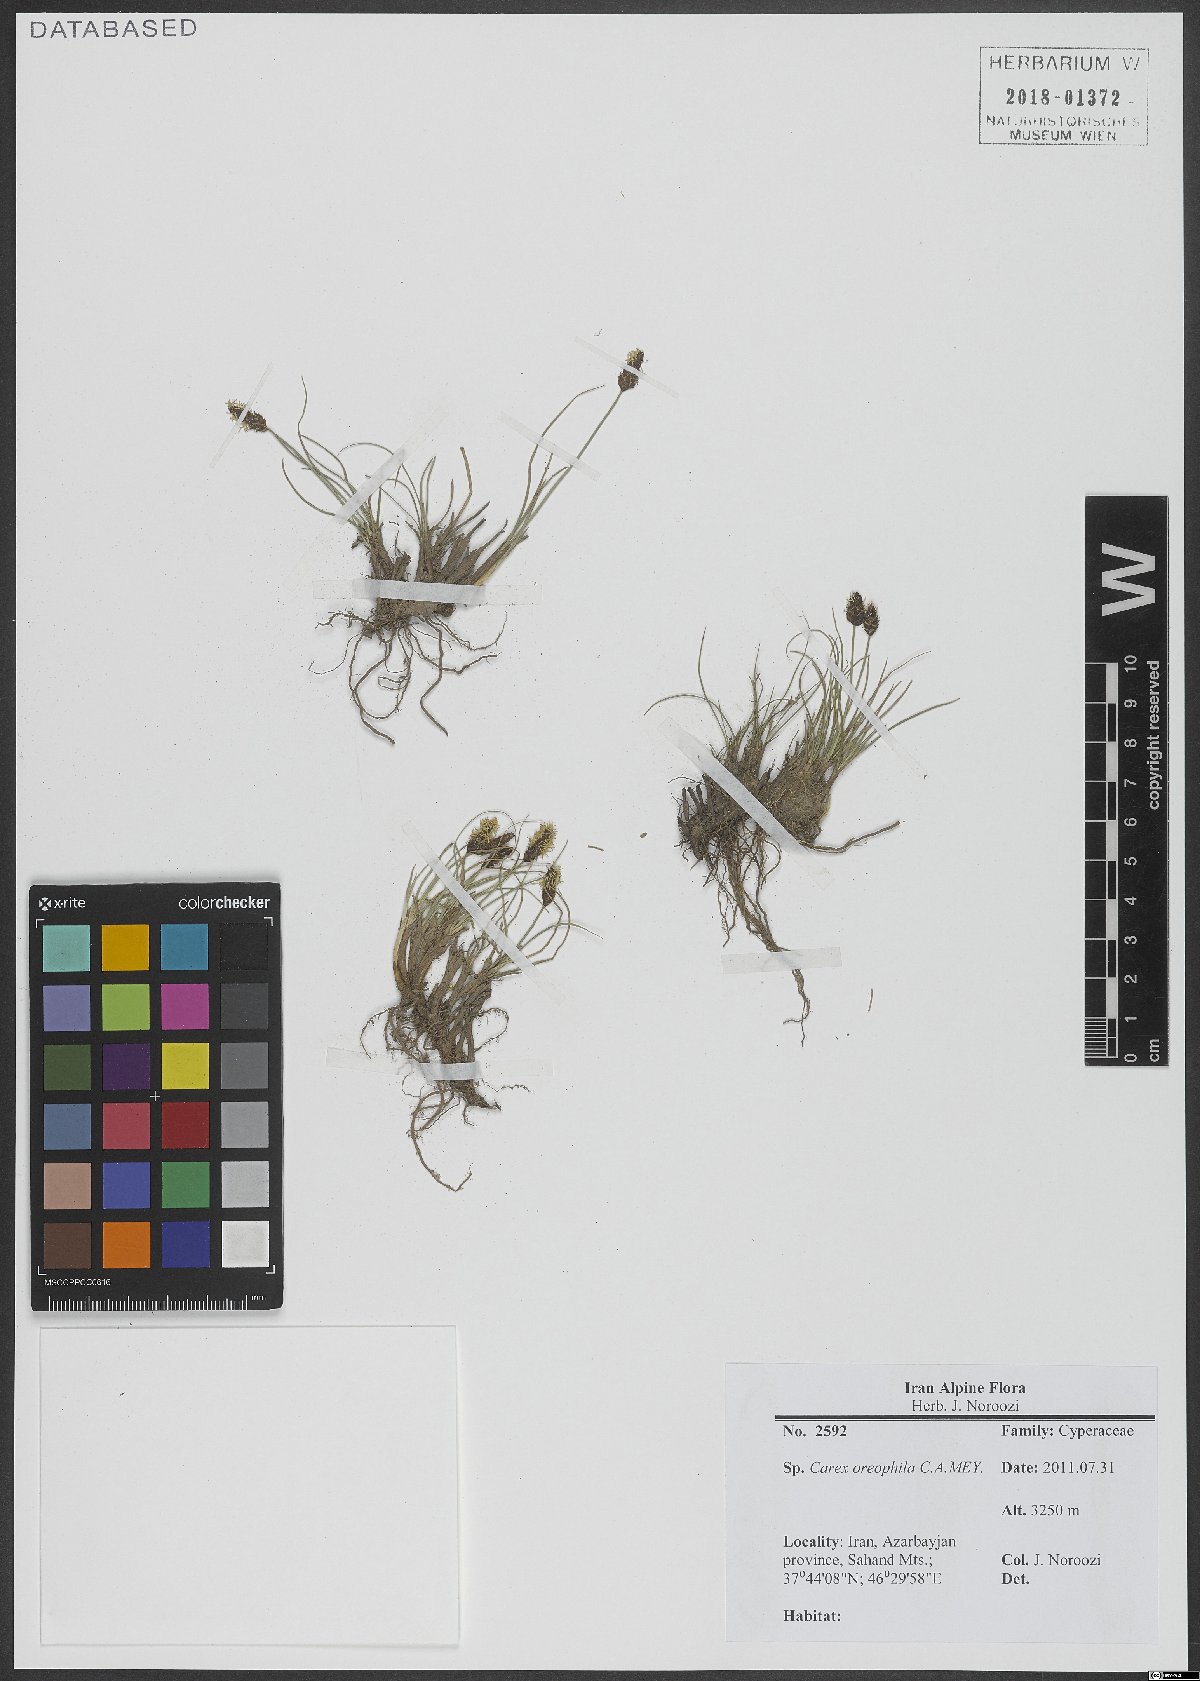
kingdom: Plantae
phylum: Tracheophyta
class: Liliopsida
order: Poales
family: Cyperaceae
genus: Carex
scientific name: Carex oreophila
